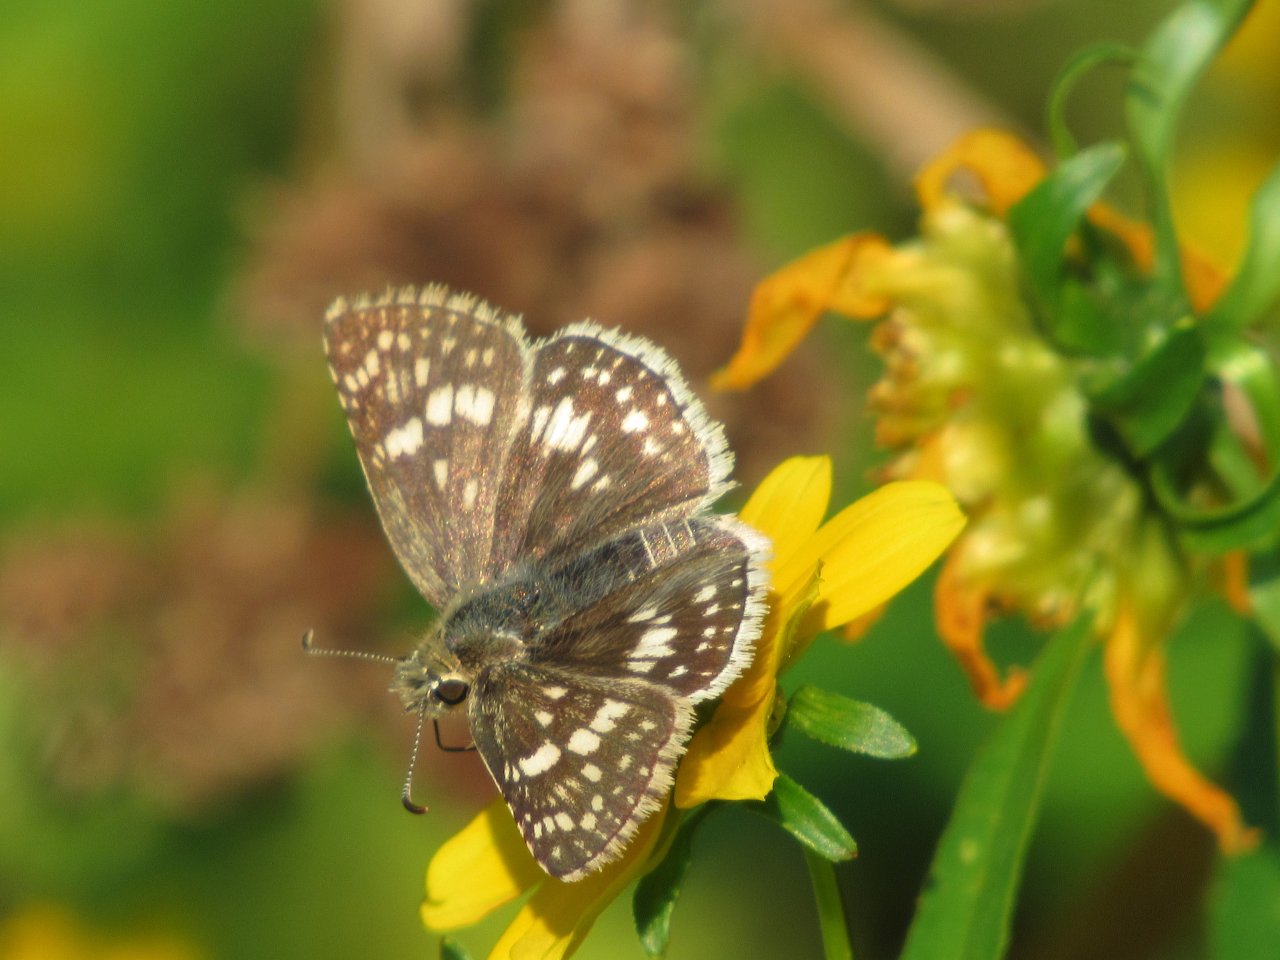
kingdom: Animalia
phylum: Arthropoda
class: Insecta
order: Lepidoptera
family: Hesperiidae
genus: Pyrgus
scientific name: Pyrgus communis
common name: Common Checkered-Skipper
